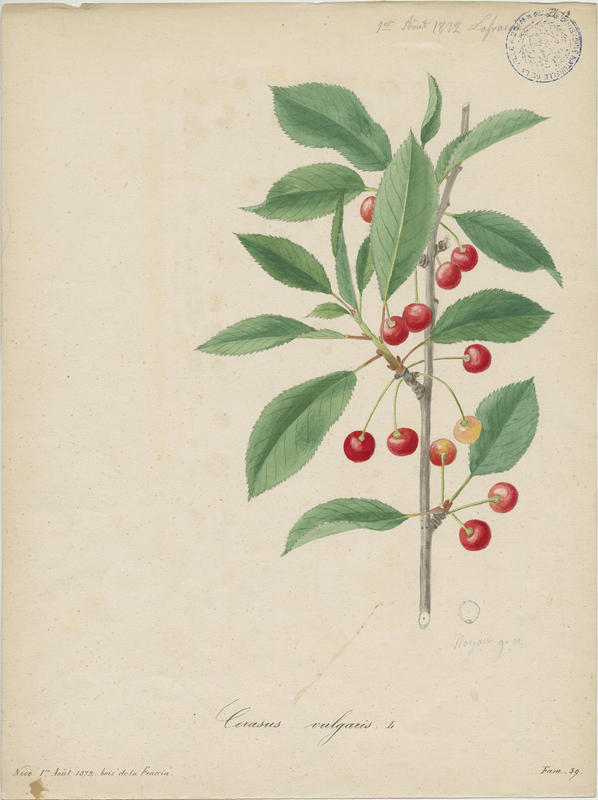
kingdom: Plantae
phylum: Tracheophyta
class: Magnoliopsida
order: Rosales
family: Rosaceae
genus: Prunus
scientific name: Prunus cerasus
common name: Morello cherry
